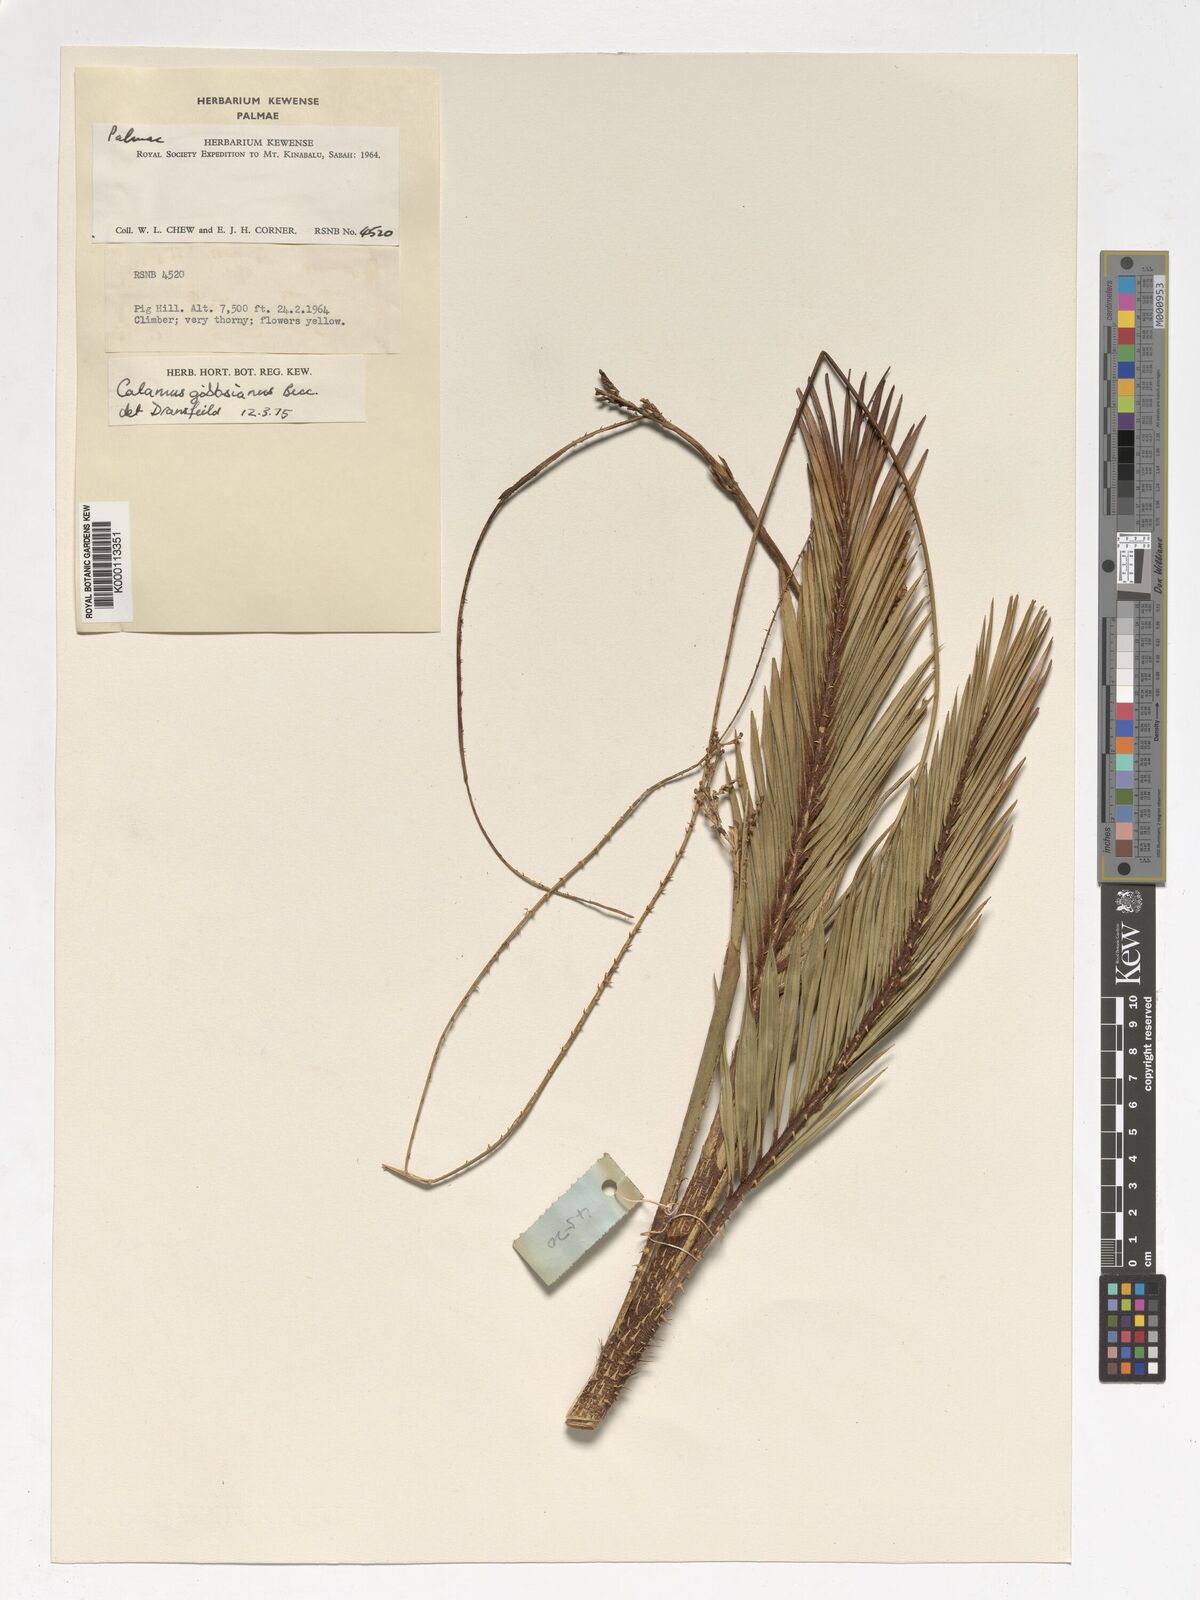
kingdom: Plantae
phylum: Tracheophyta
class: Liliopsida
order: Arecales
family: Arecaceae
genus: Calamus
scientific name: Calamus gibbsianus
